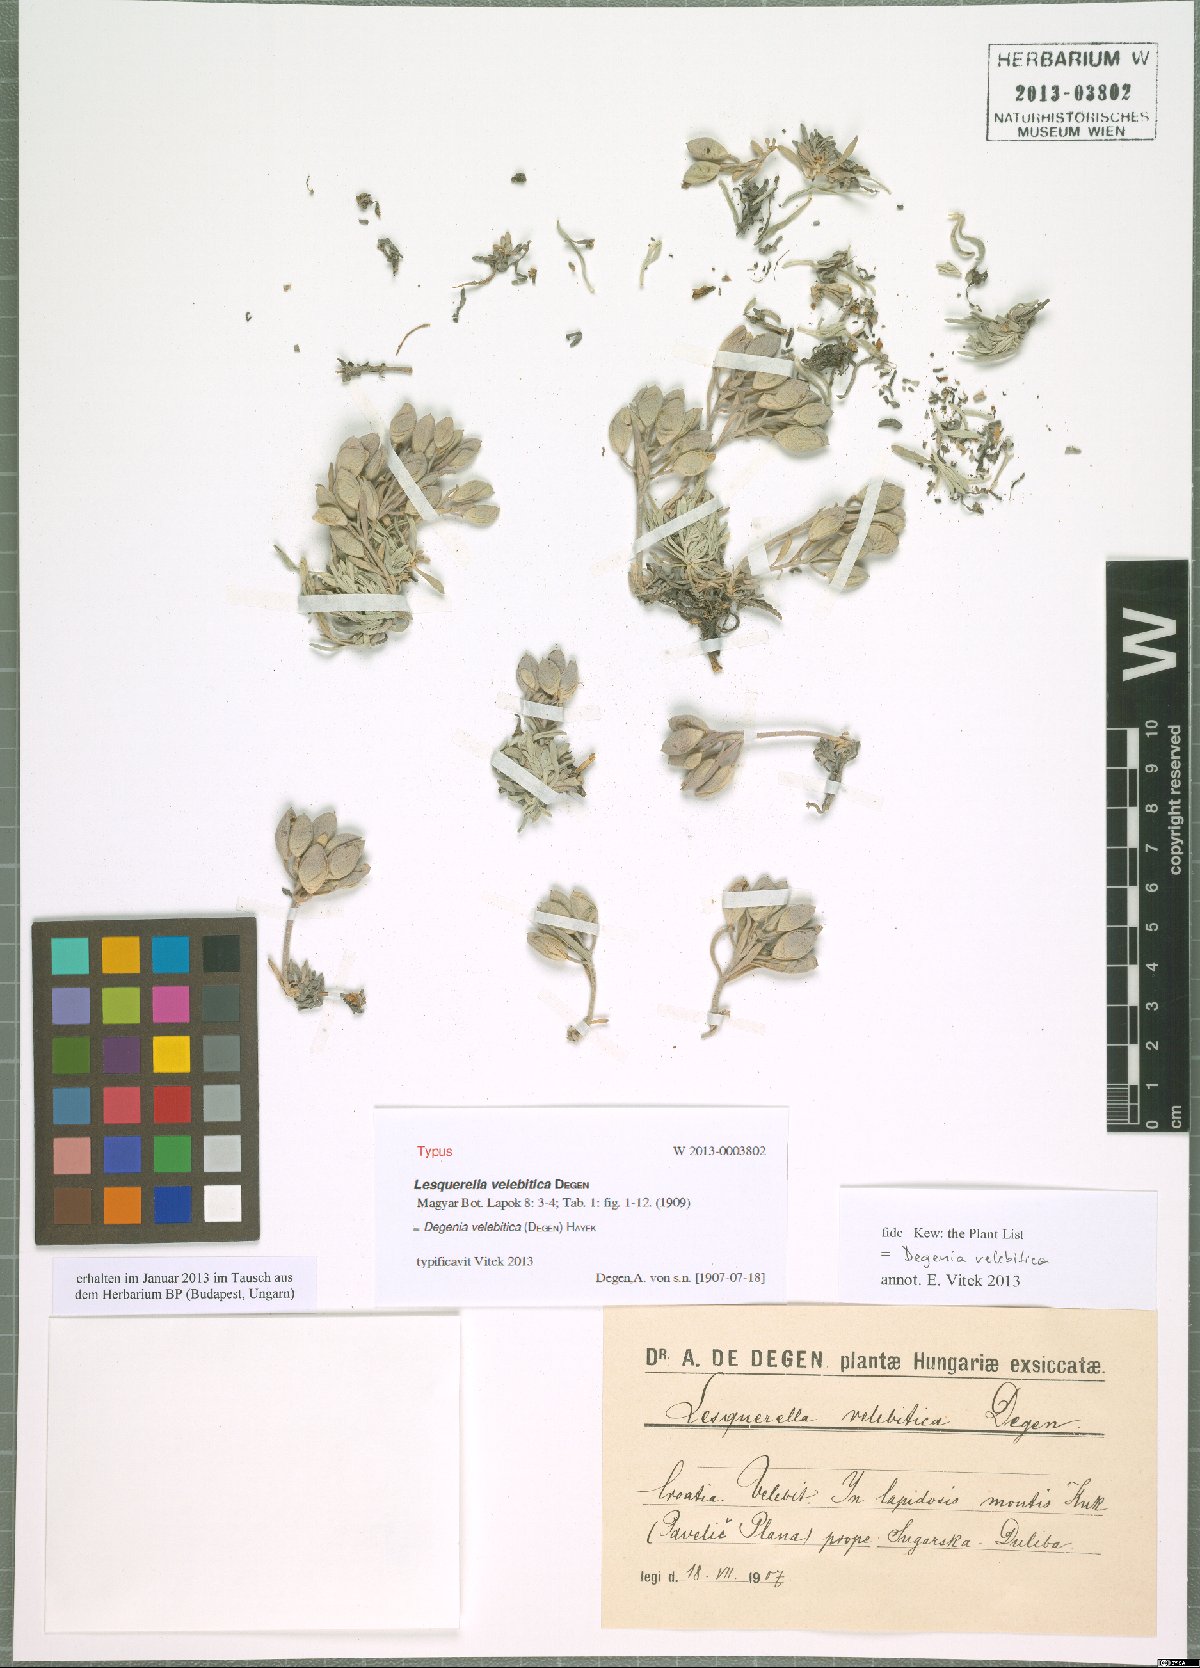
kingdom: Plantae
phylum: Tracheophyta
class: Magnoliopsida
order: Brassicales
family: Brassicaceae
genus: Degenia
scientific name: Degenia velebitica
